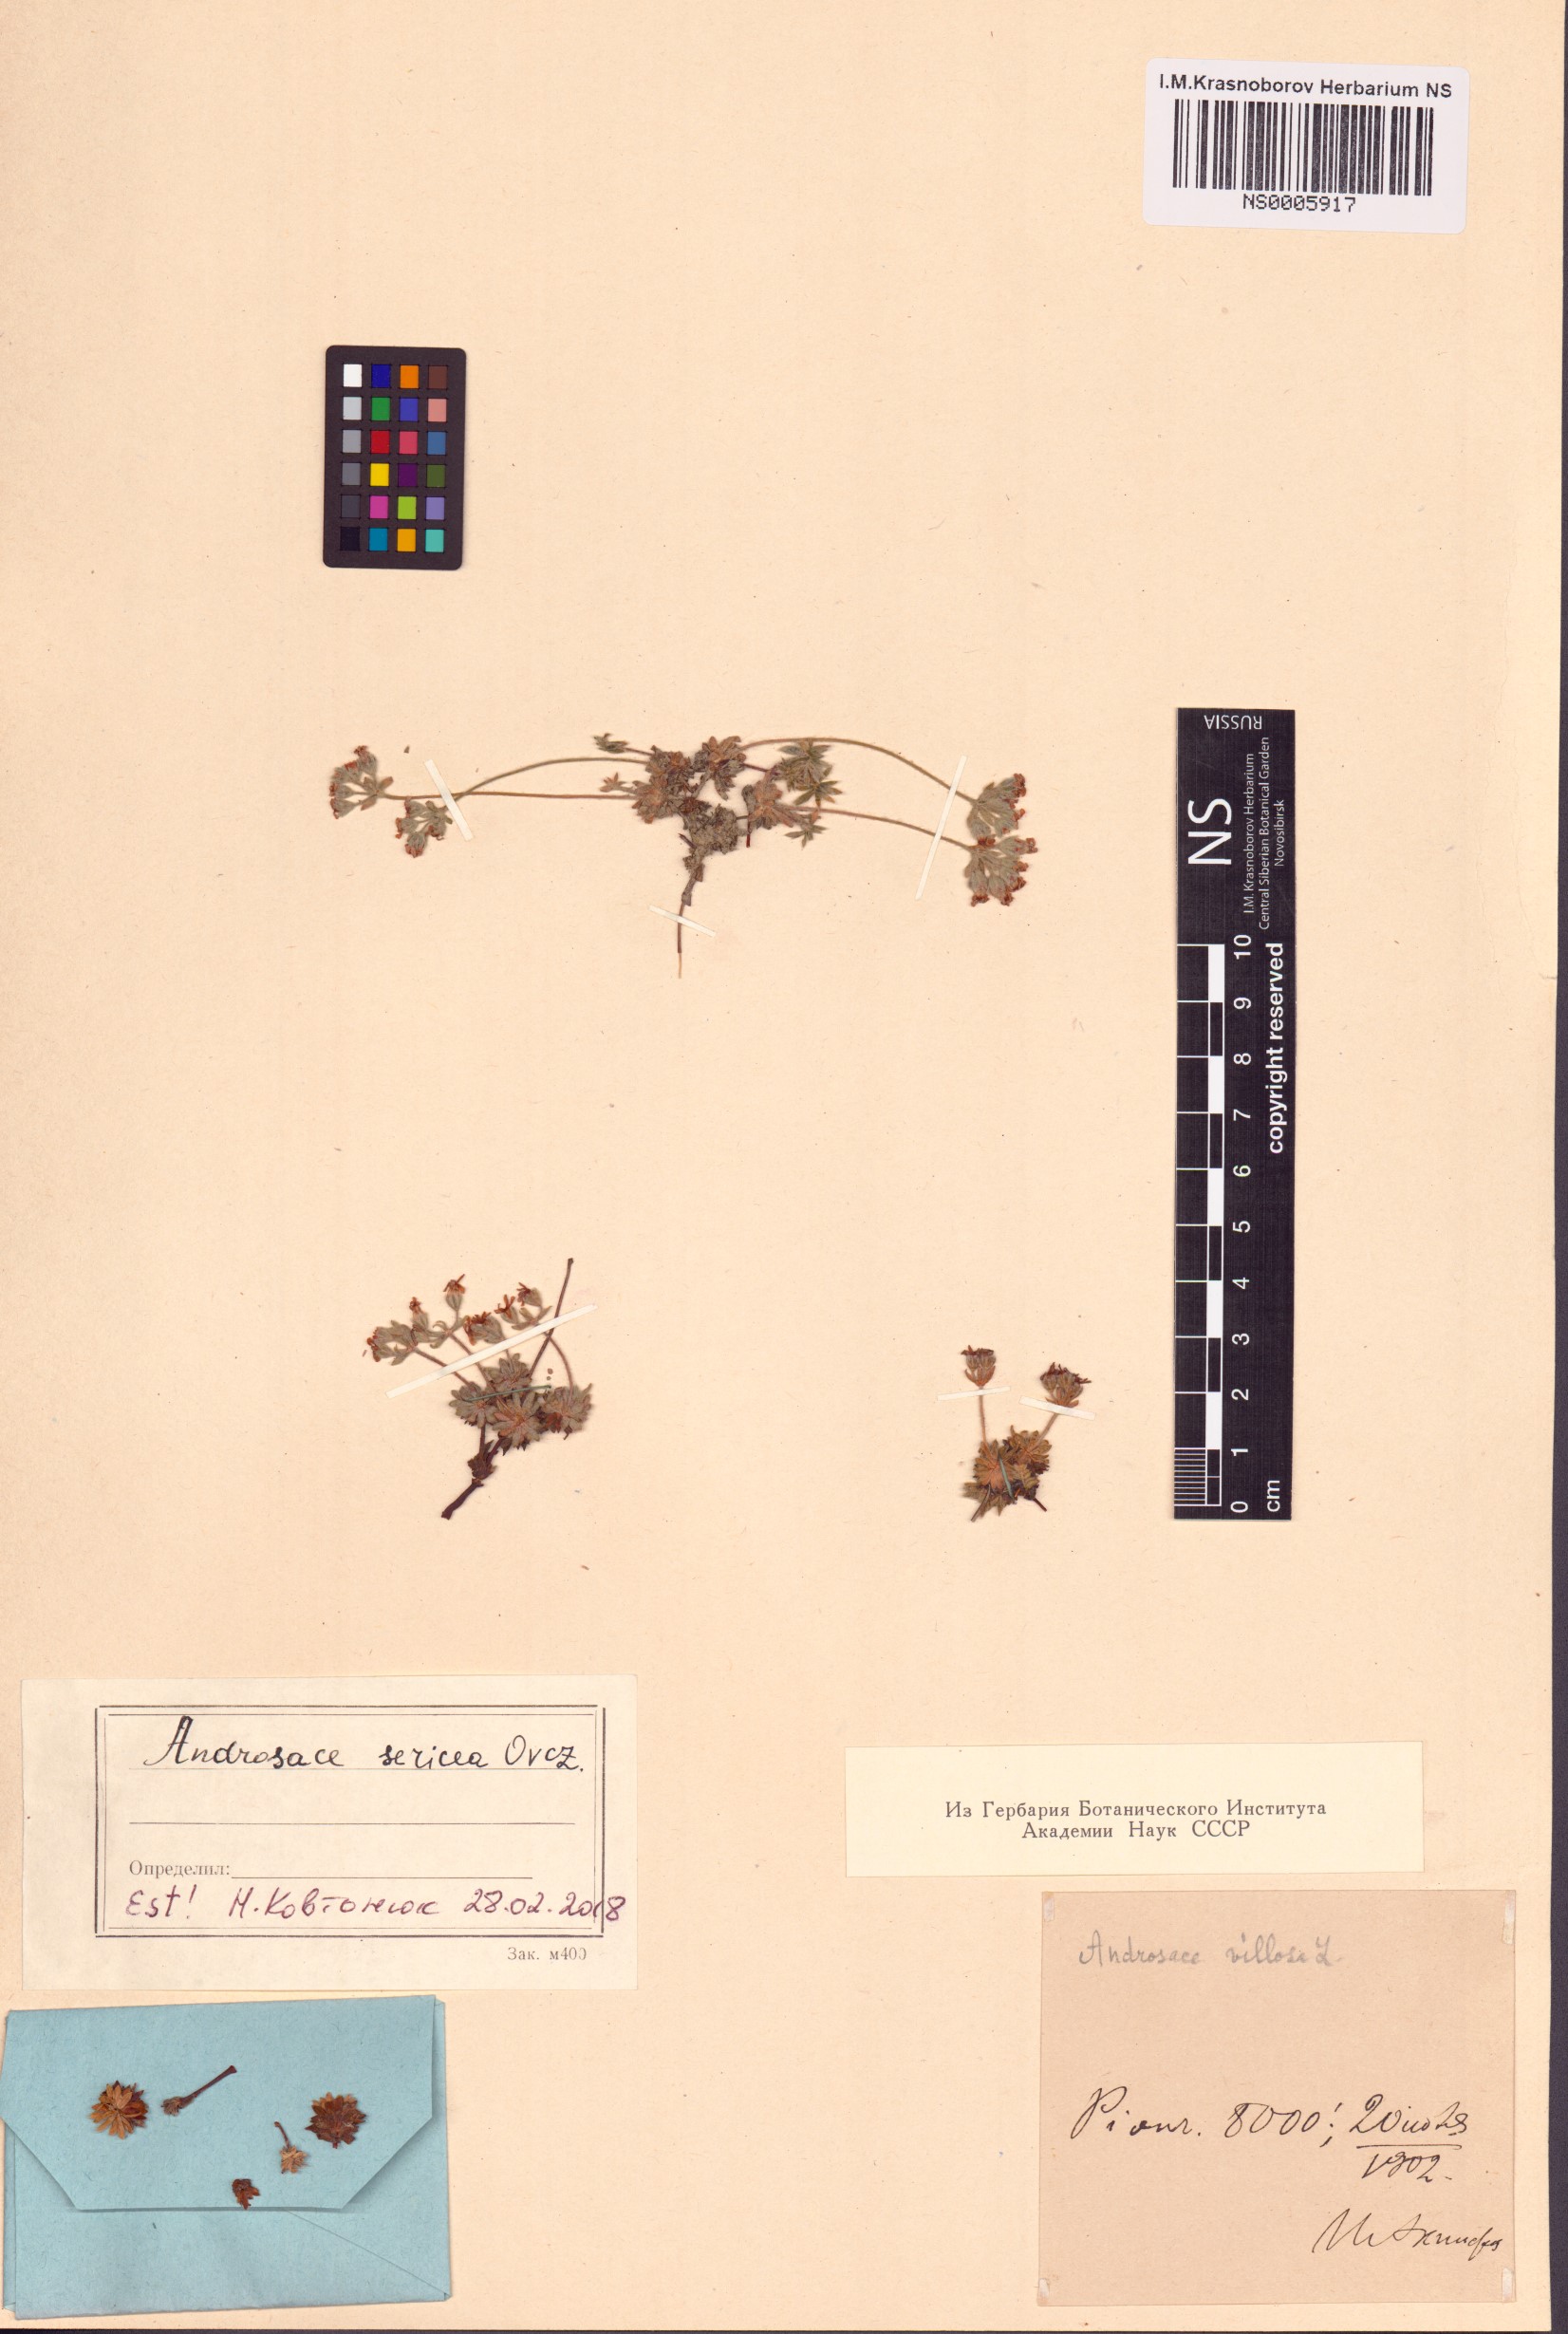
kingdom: Plantae
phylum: Tracheophyta
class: Magnoliopsida
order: Ericales
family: Primulaceae
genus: Androsace
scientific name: Androsace sericea
